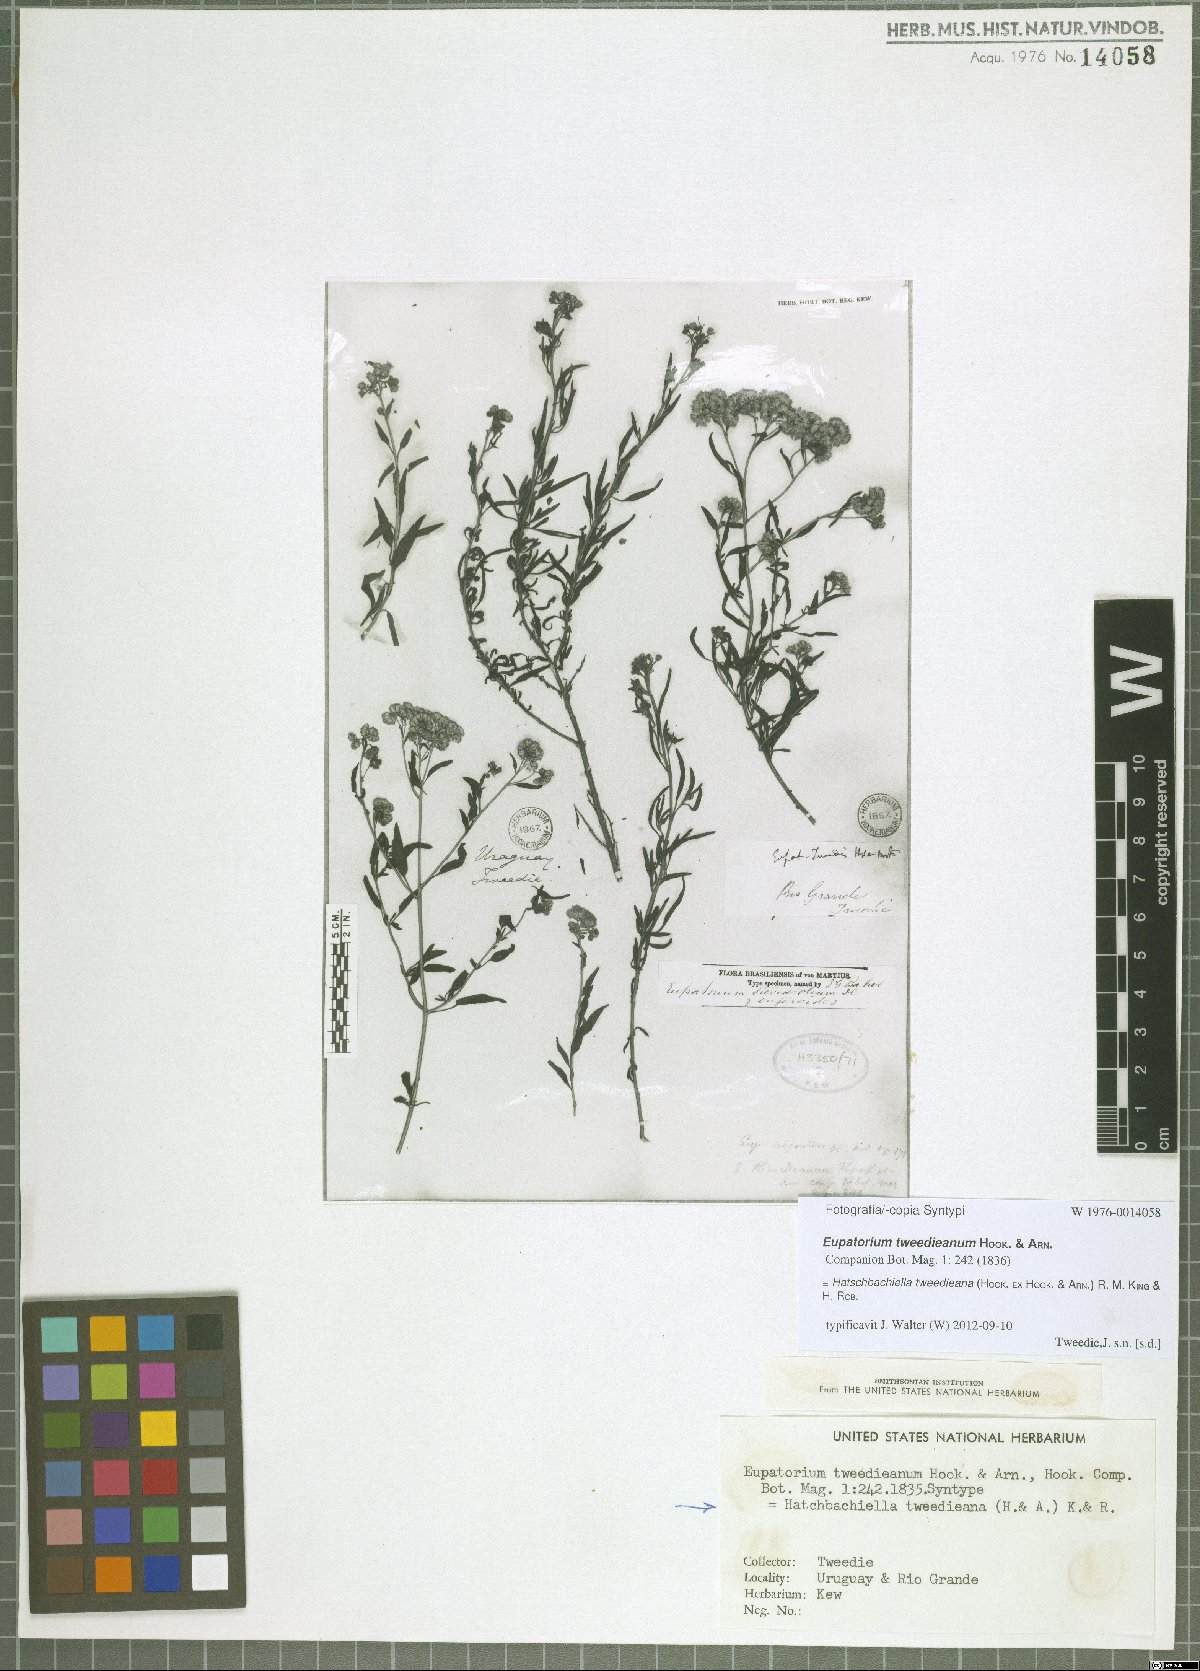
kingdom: Plantae
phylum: Tracheophyta
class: Magnoliopsida
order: Asterales
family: Asteraceae
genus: Hatschbachiella
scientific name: Hatschbachiella tweedieana
